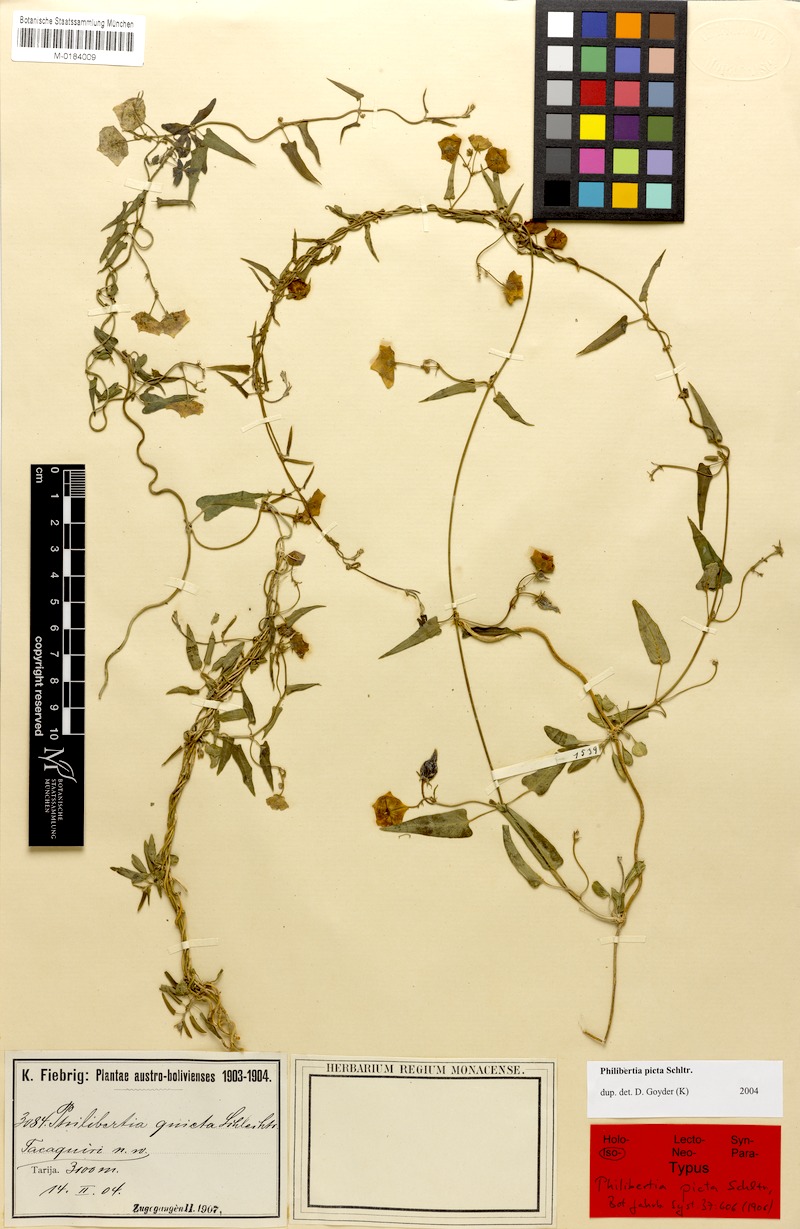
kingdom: Plantae
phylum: Tracheophyta
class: Magnoliopsida
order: Gentianales
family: Apocynaceae
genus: Philibertia
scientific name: Philibertia picta
